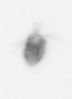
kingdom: Animalia
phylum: Arthropoda
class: Copepoda
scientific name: Copepoda
